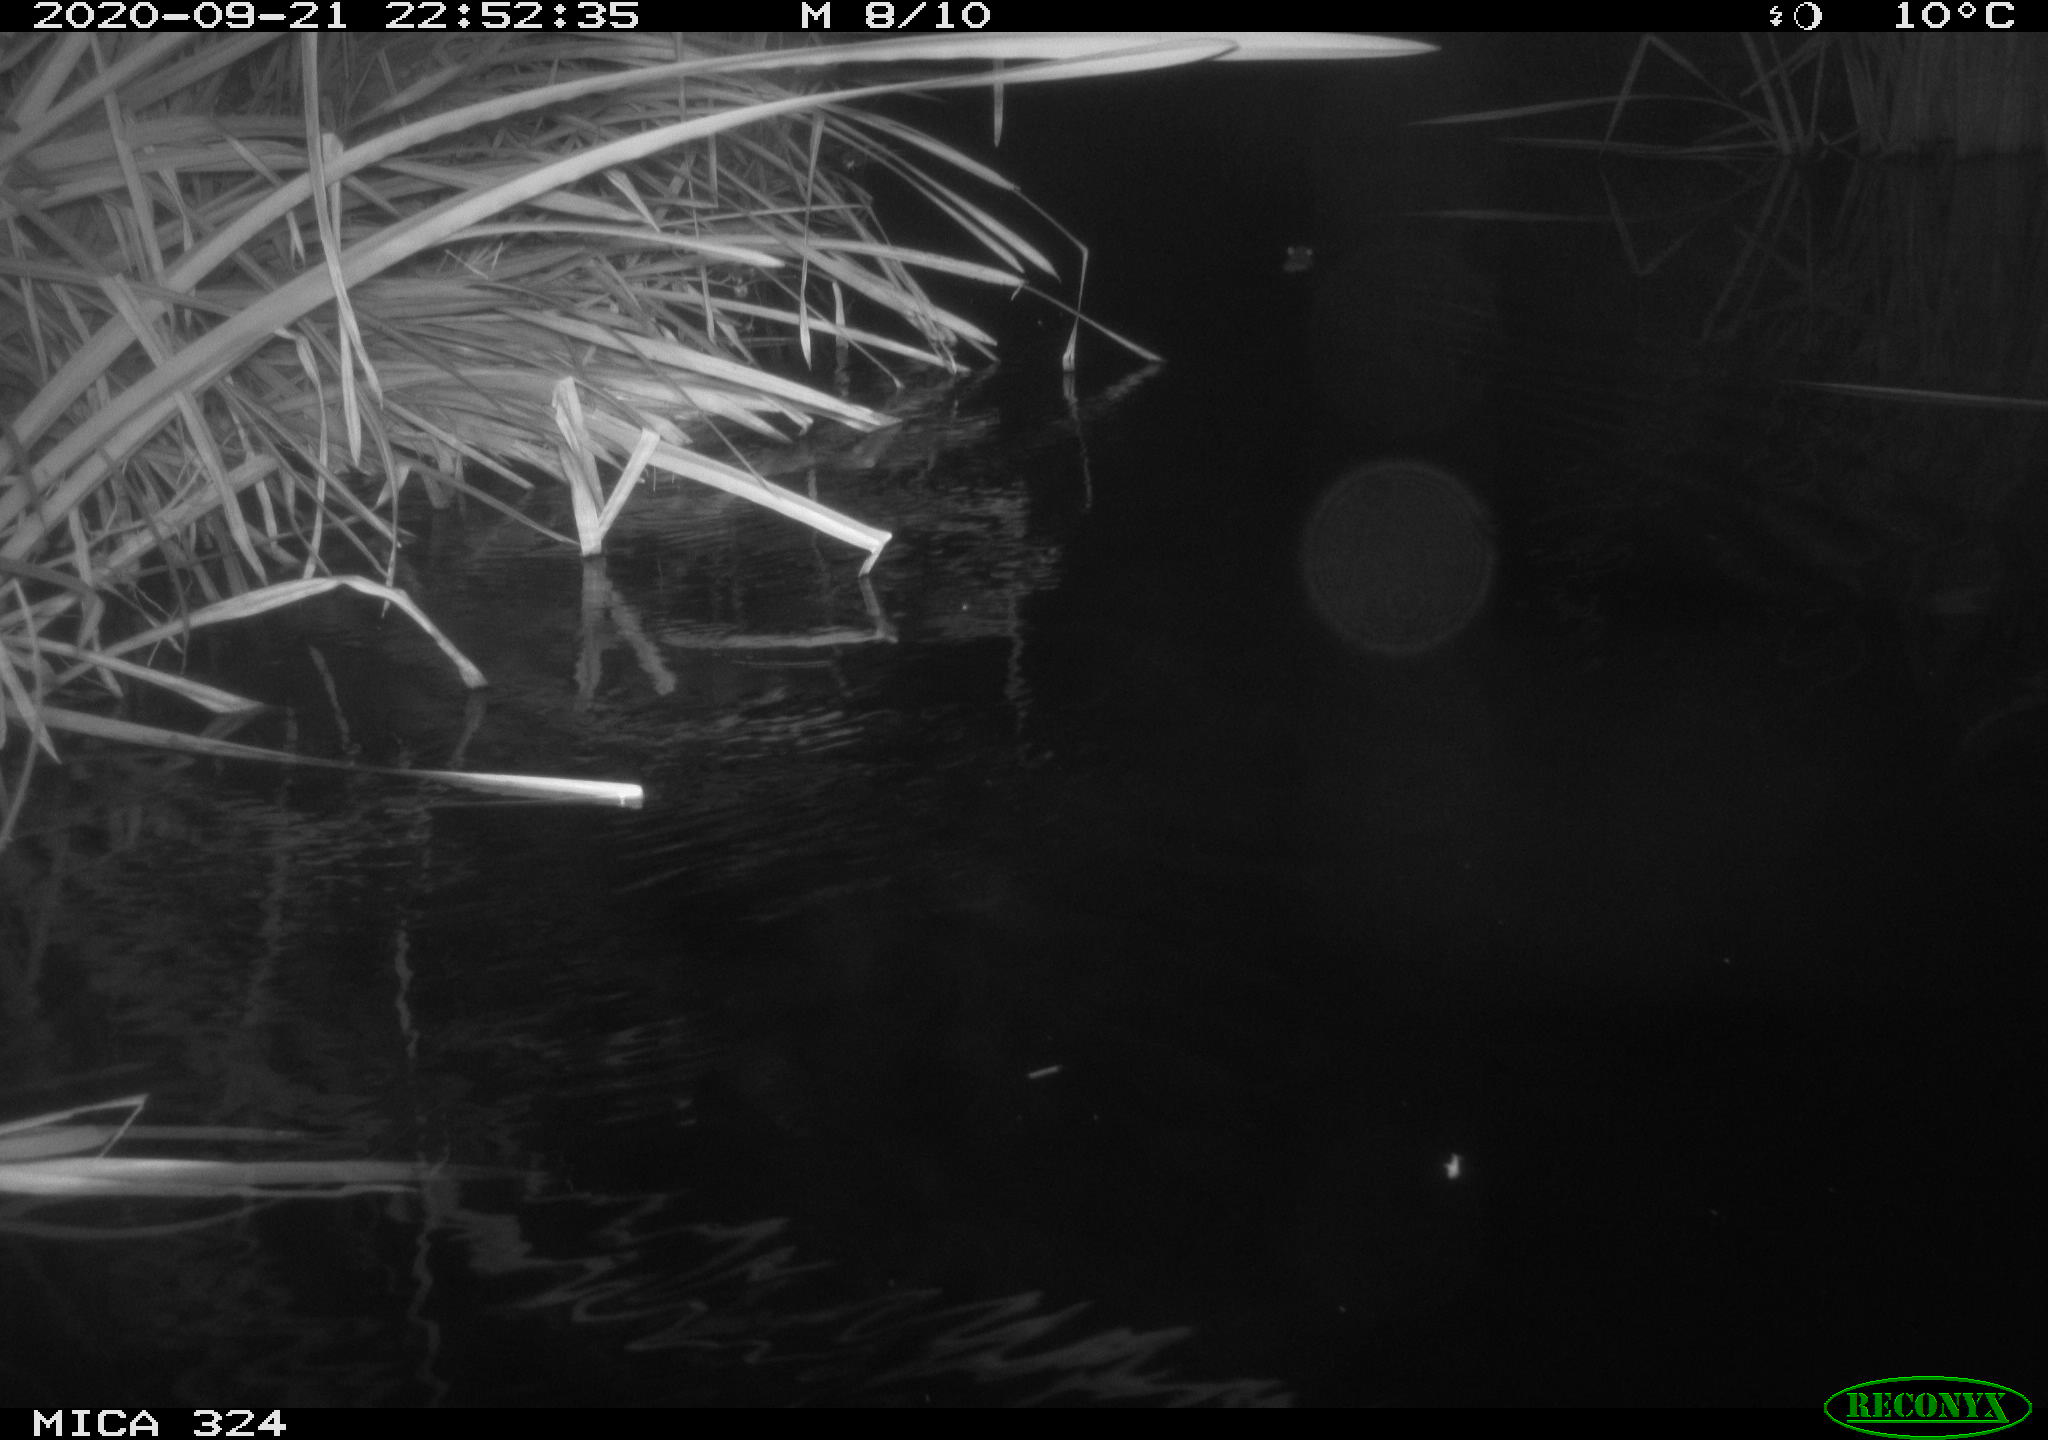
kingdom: Animalia
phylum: Chordata
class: Mammalia
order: Rodentia
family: Muridae
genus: Rattus
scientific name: Rattus norvegicus
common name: Brown rat
